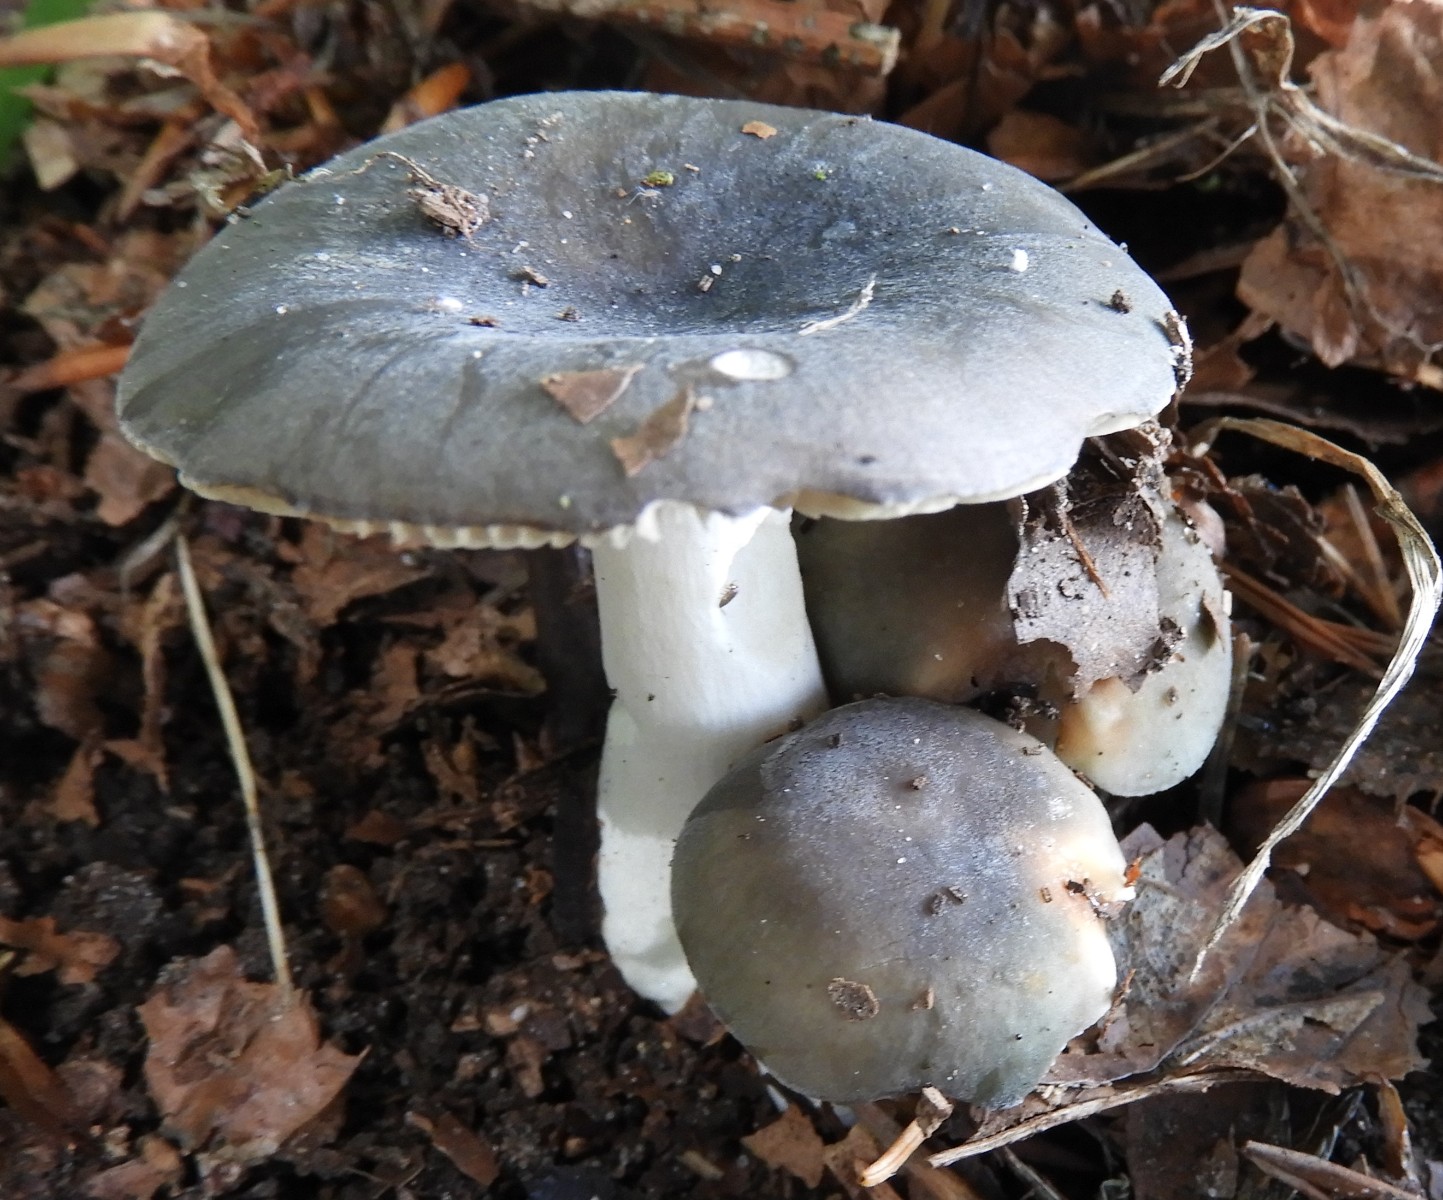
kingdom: Fungi
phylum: Basidiomycota
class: Agaricomycetes
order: Russulales
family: Russulaceae
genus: Russula
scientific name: Russula parazurea
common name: blågrå skørhat
